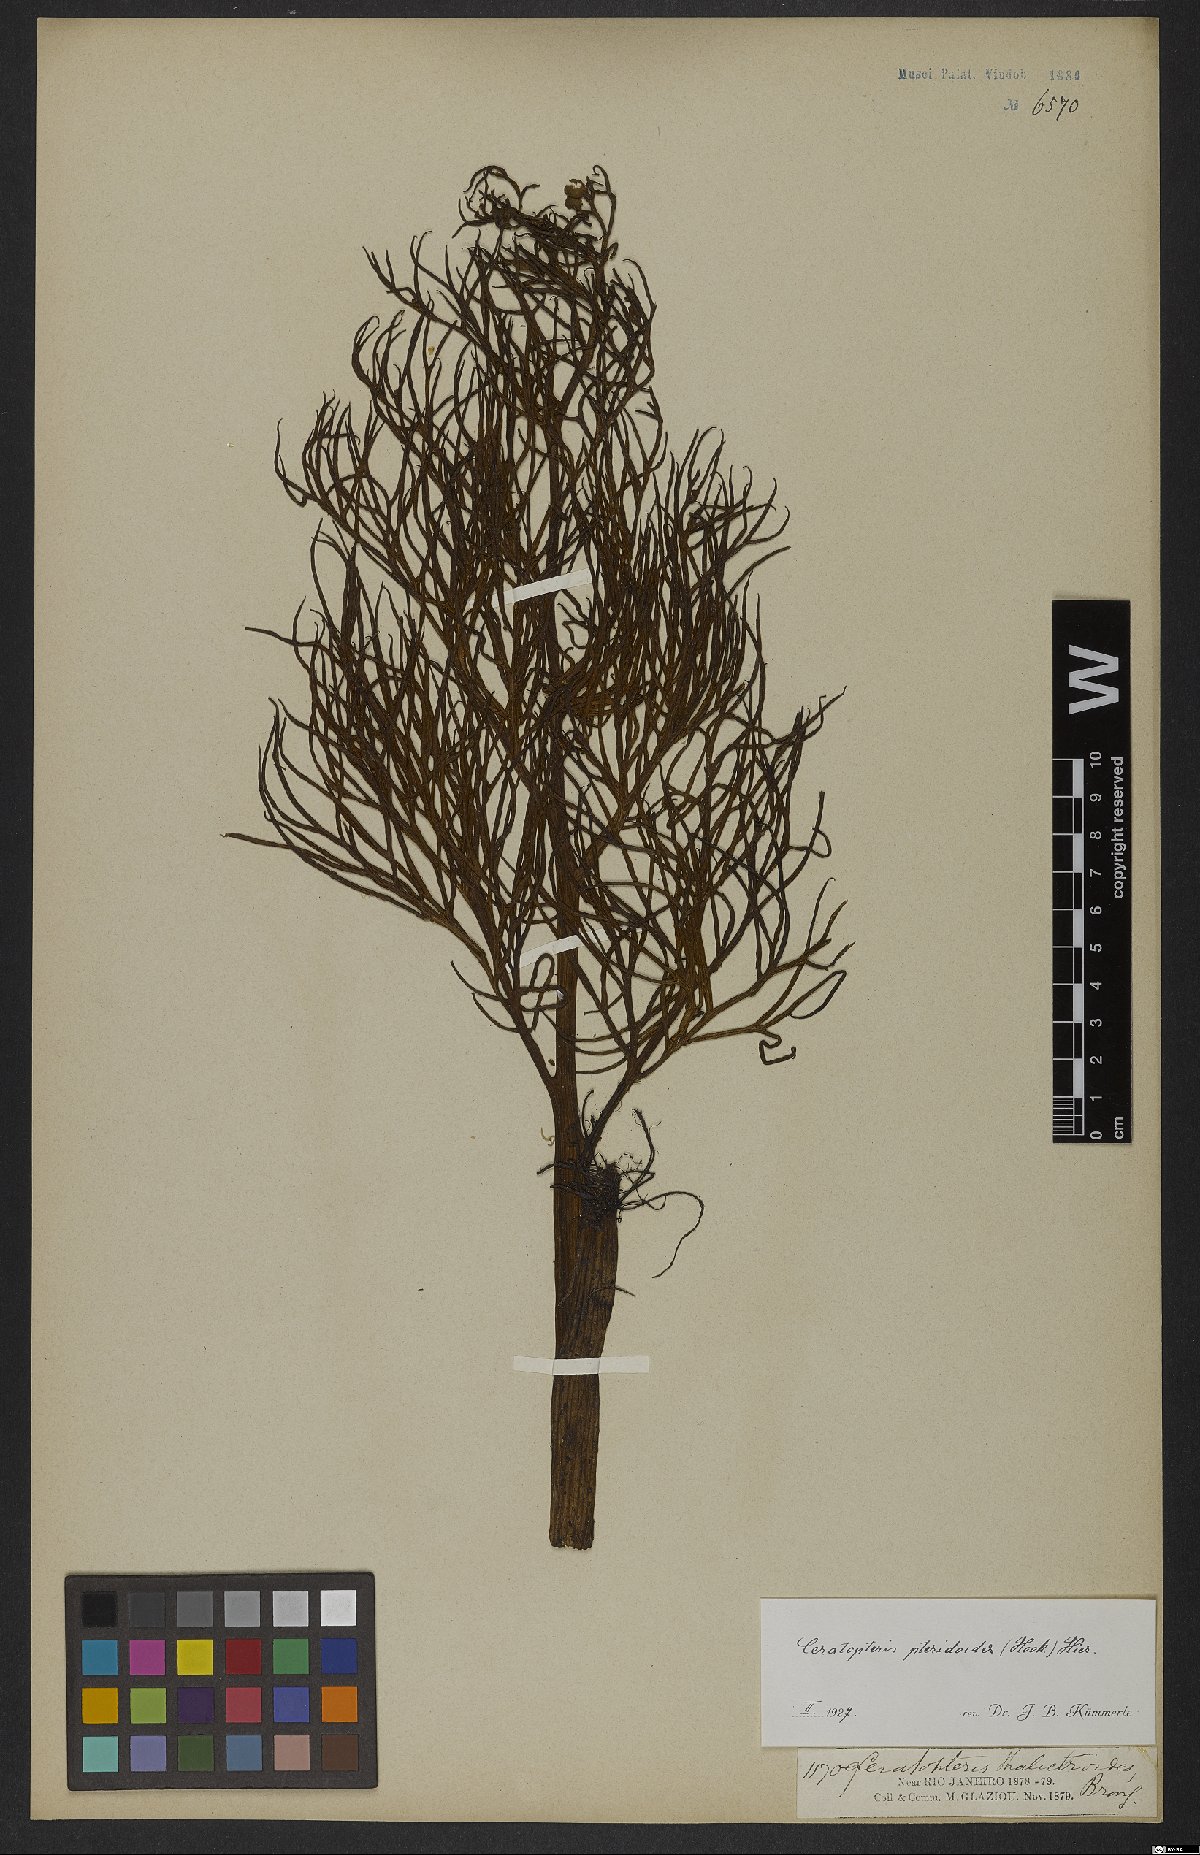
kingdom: Plantae
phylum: Tracheophyta
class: Polypodiopsida
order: Polypodiales
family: Pteridaceae
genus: Ceratopteris
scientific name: Ceratopteris pteridoides
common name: Floating fern
